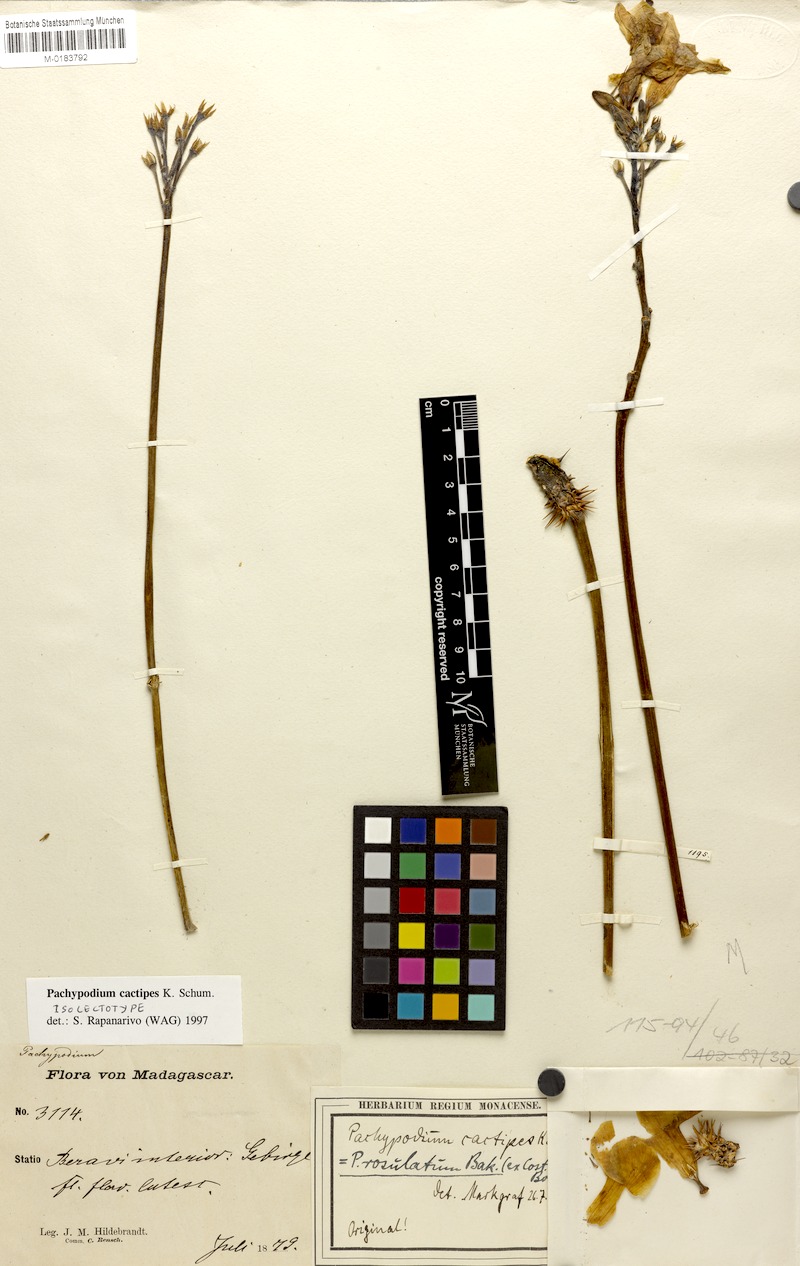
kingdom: Plantae
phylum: Tracheophyta
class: Magnoliopsida
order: Gentianales
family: Apocynaceae
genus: Pachypodium
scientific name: Pachypodium cactipes
